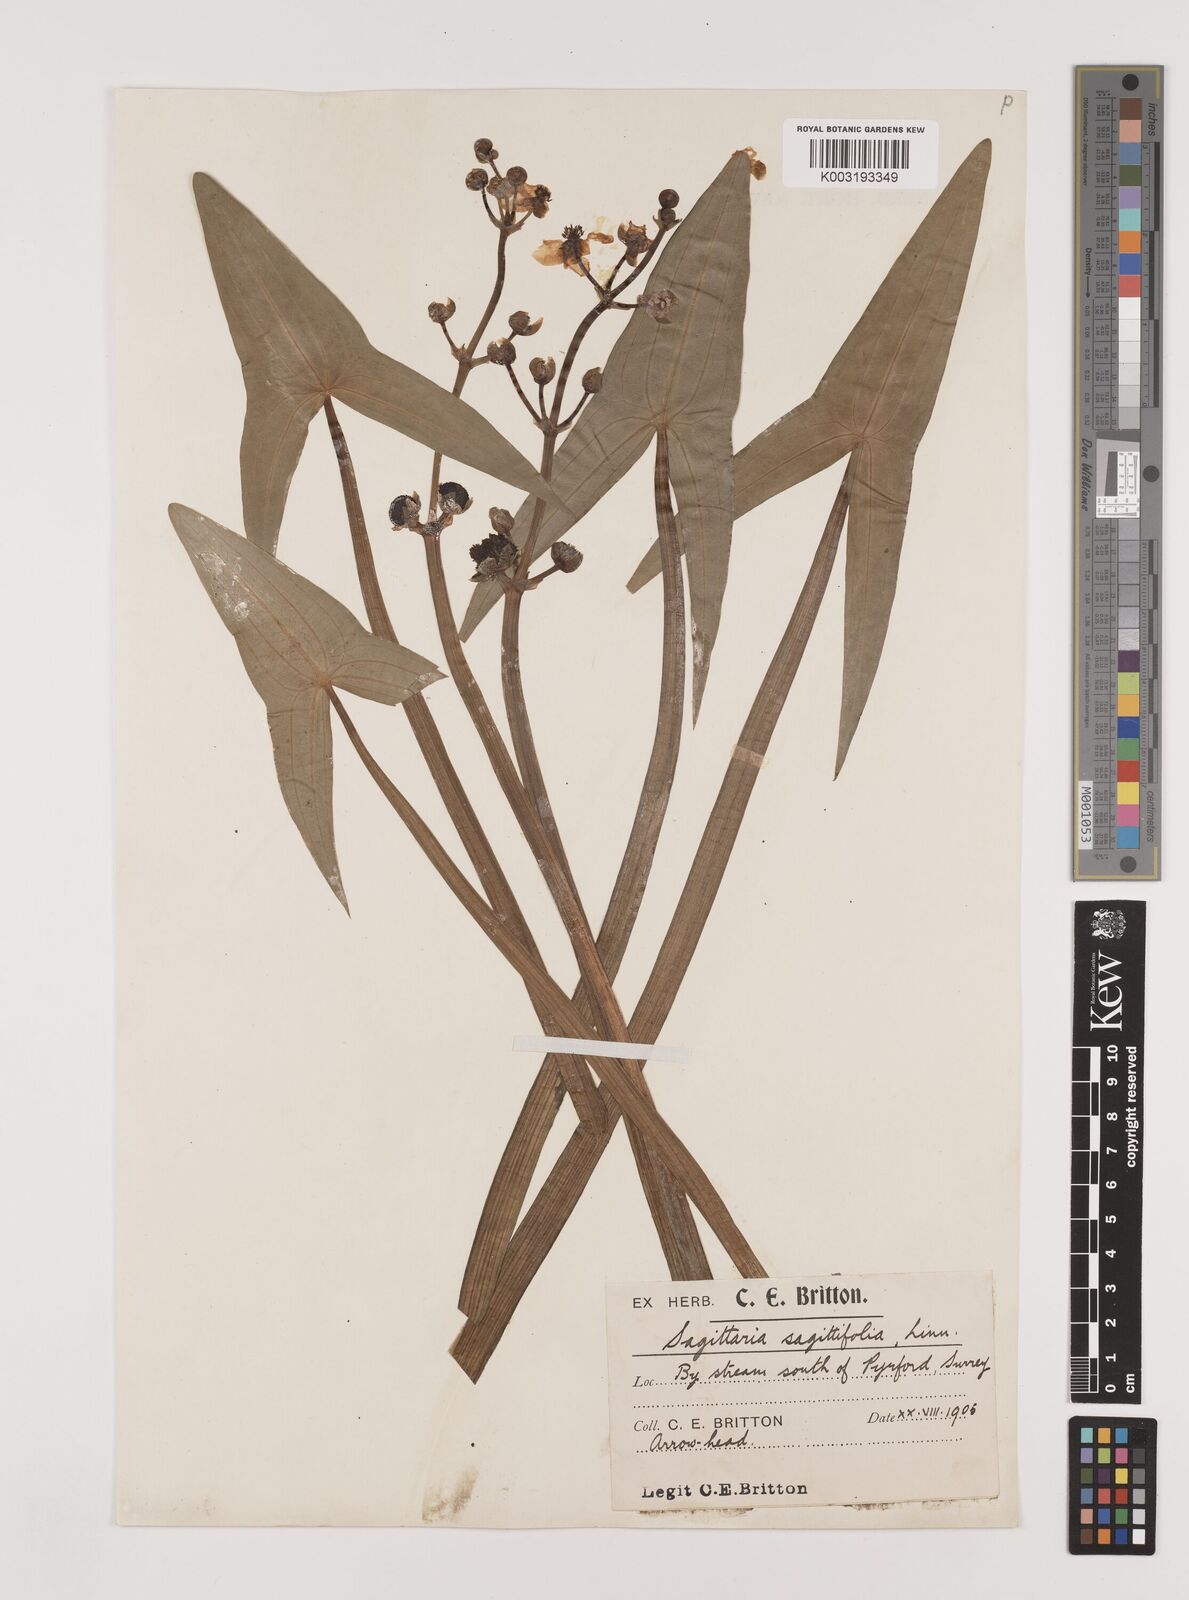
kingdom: Plantae
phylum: Tracheophyta
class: Liliopsida
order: Alismatales
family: Alismataceae
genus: Sagittaria
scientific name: Sagittaria sagittifolia
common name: Arrowhead
